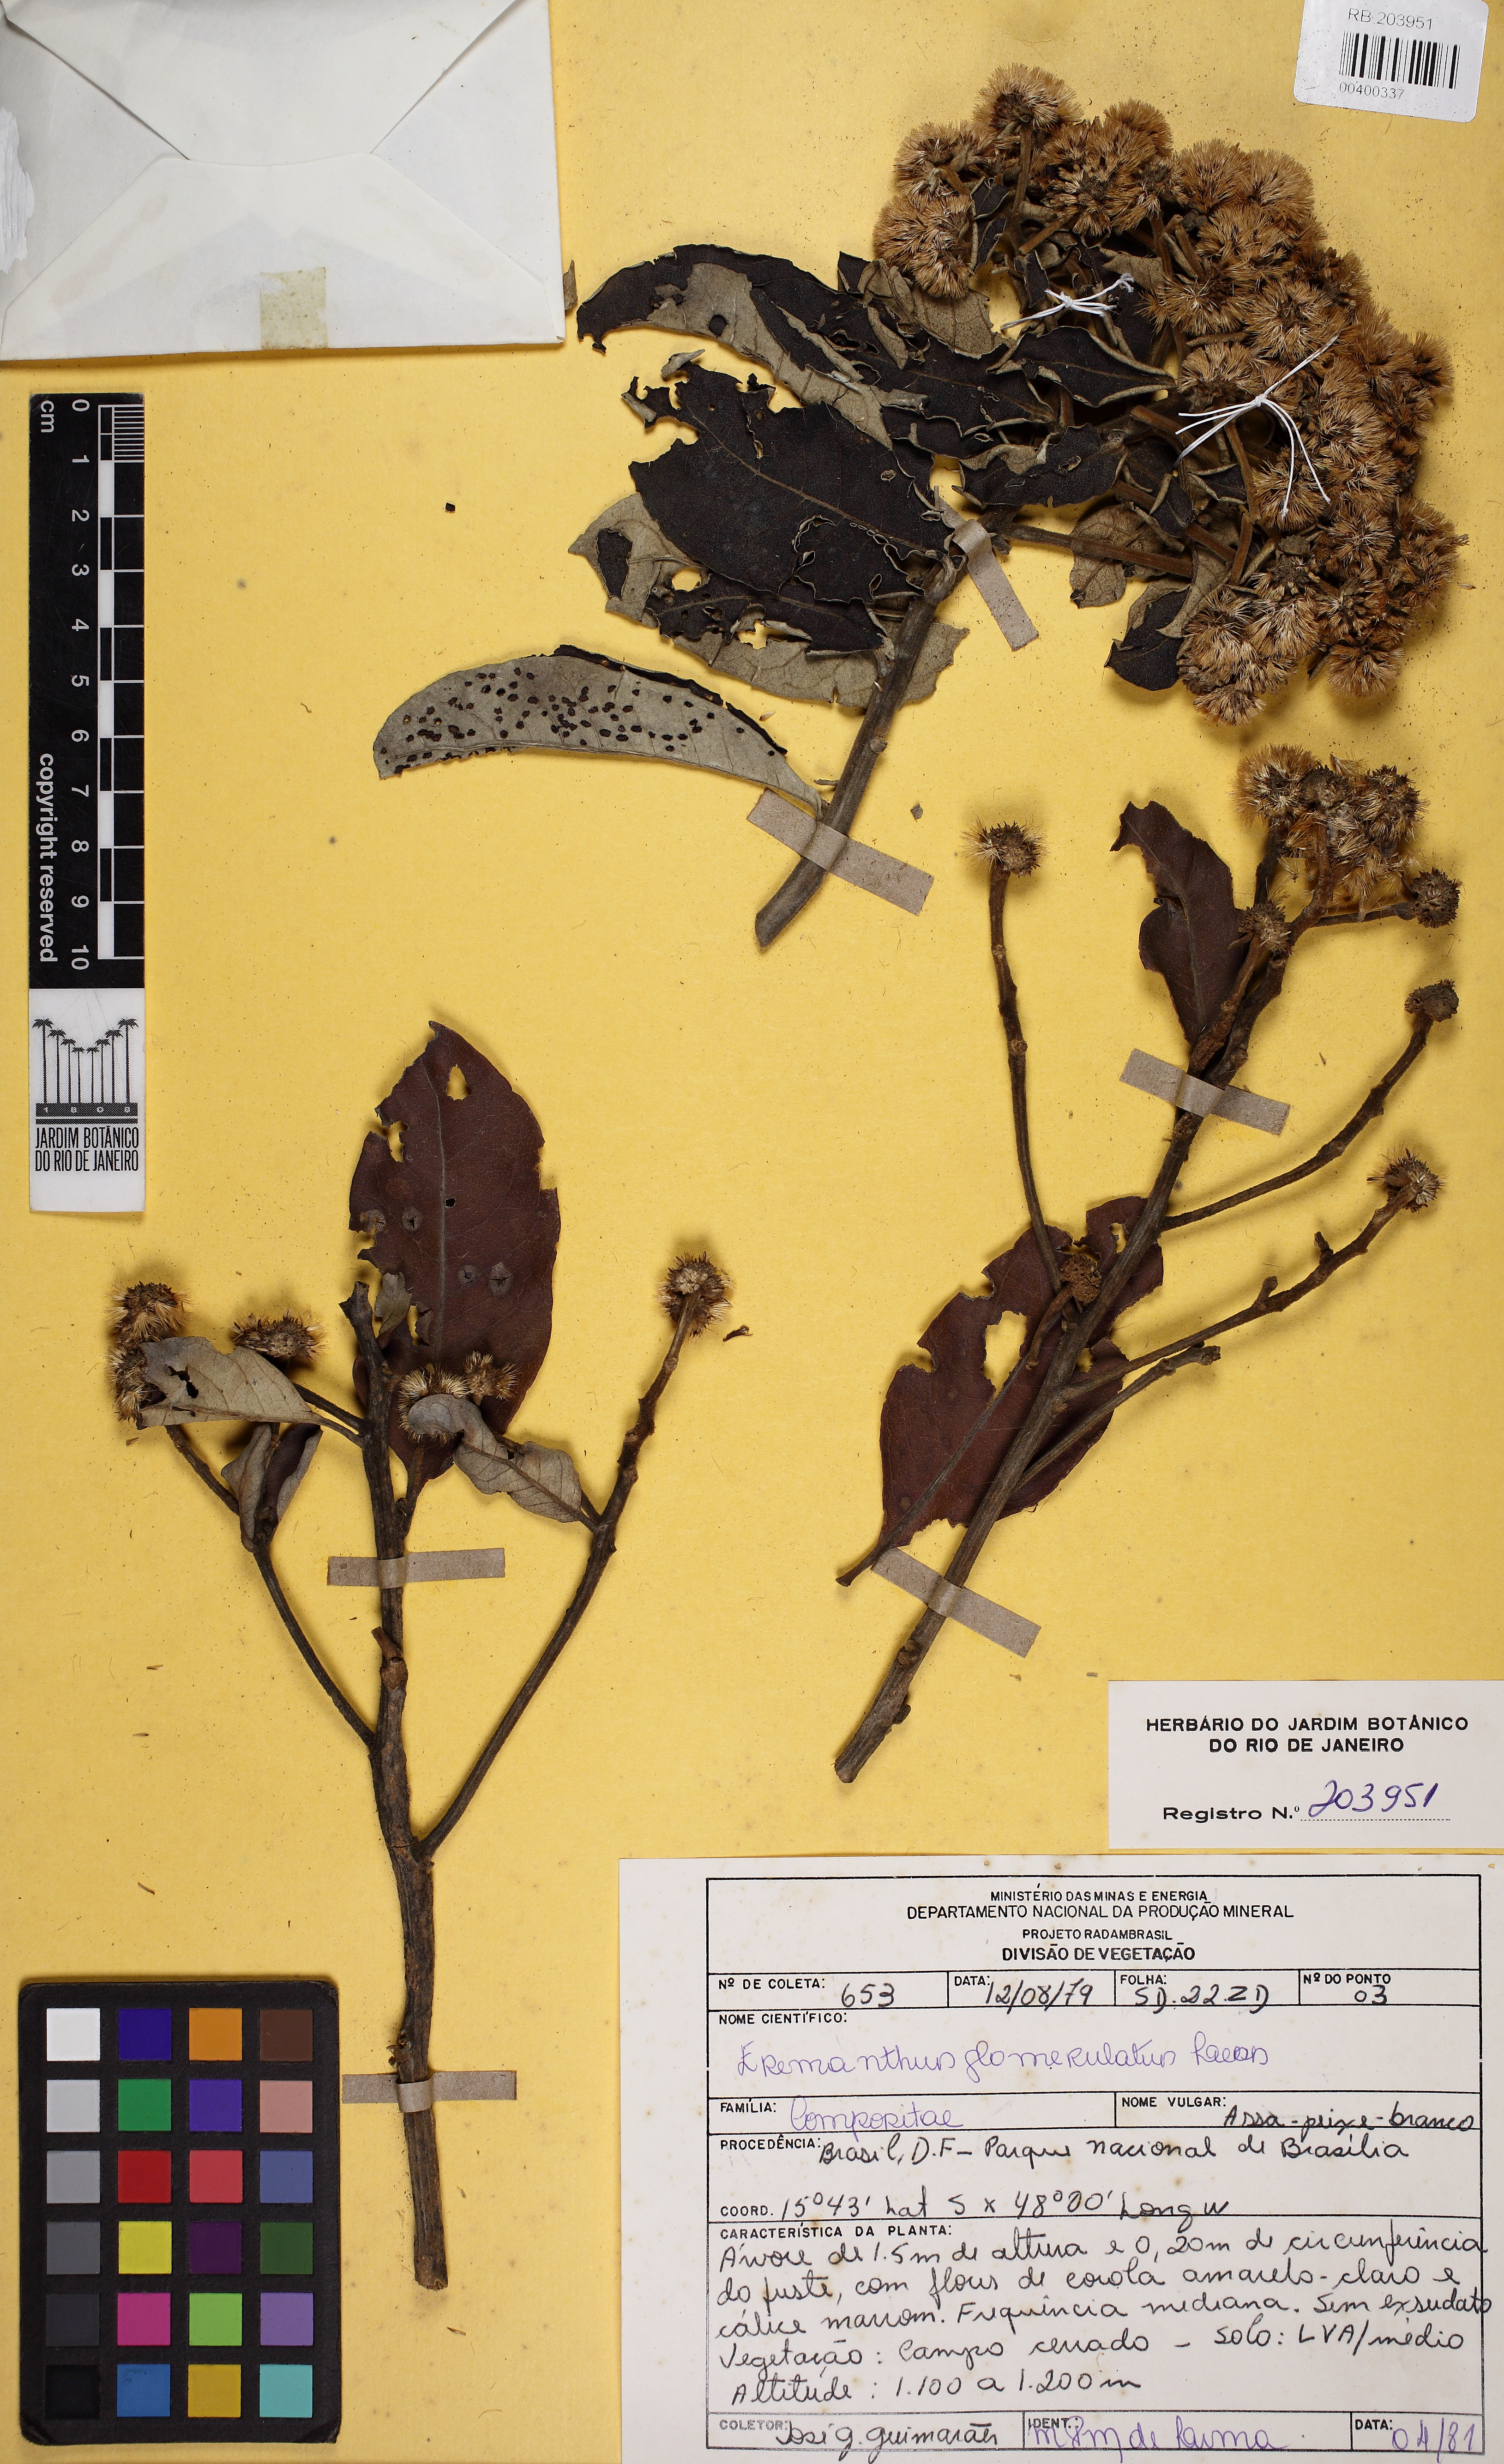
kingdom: Plantae
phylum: Tracheophyta
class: Magnoliopsida
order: Asterales
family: Asteraceae
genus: Eremanthus
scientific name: Eremanthus glomerulatus
